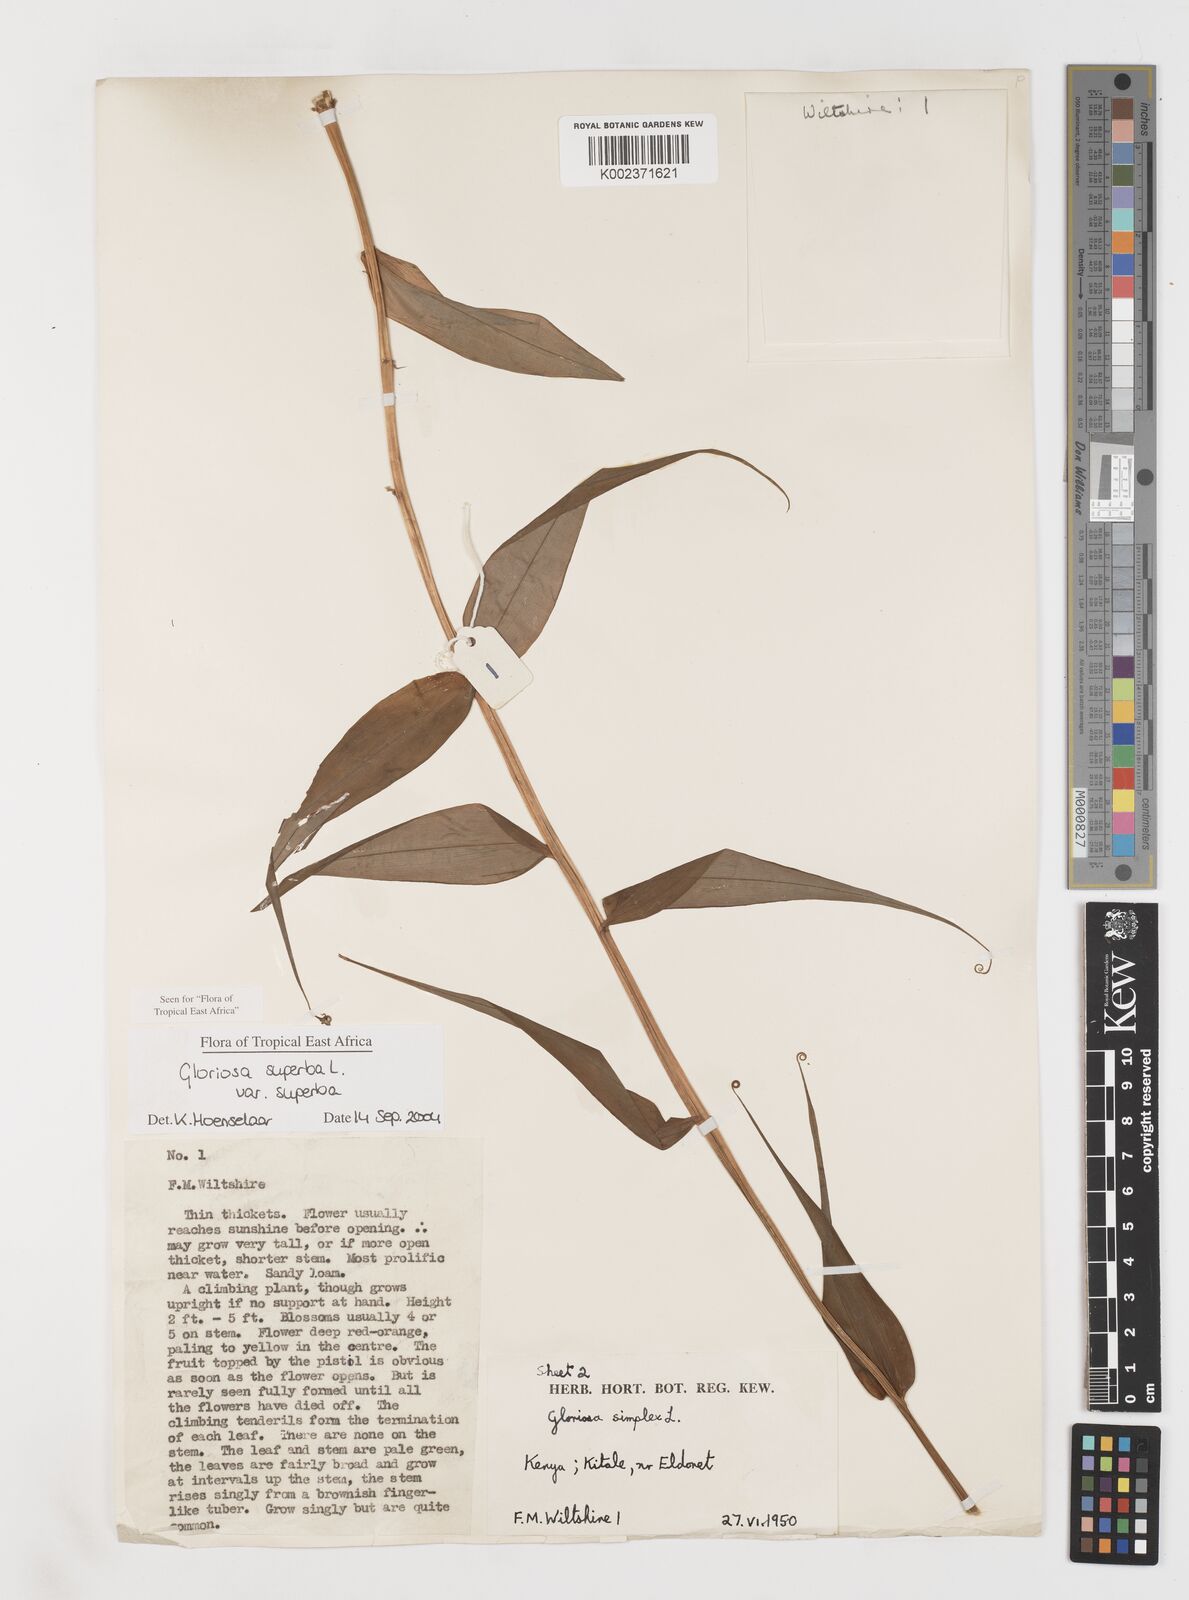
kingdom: Plantae
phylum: Tracheophyta
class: Liliopsida
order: Liliales
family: Colchicaceae
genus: Gloriosa
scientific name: Gloriosa simplex
